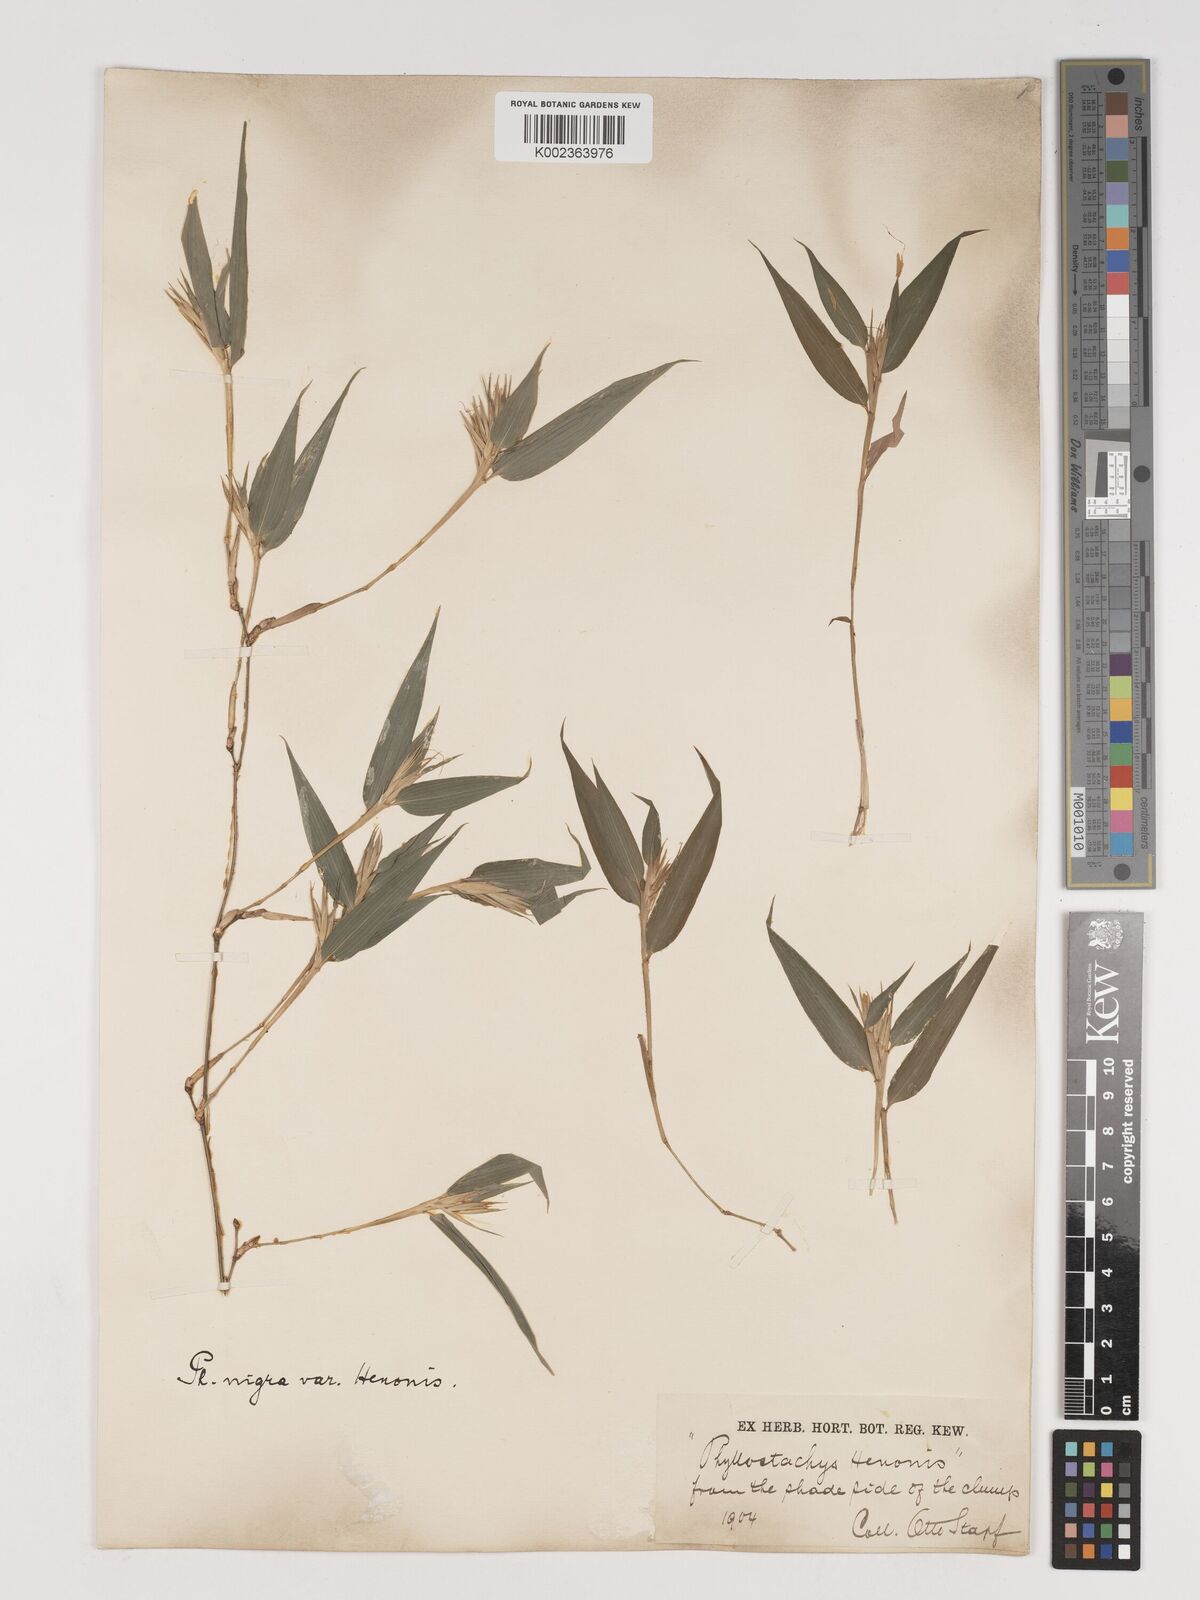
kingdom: Plantae
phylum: Tracheophyta
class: Liliopsida
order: Poales
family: Poaceae
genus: Phyllostachys
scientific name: Phyllostachys nigra
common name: Black bamboo
